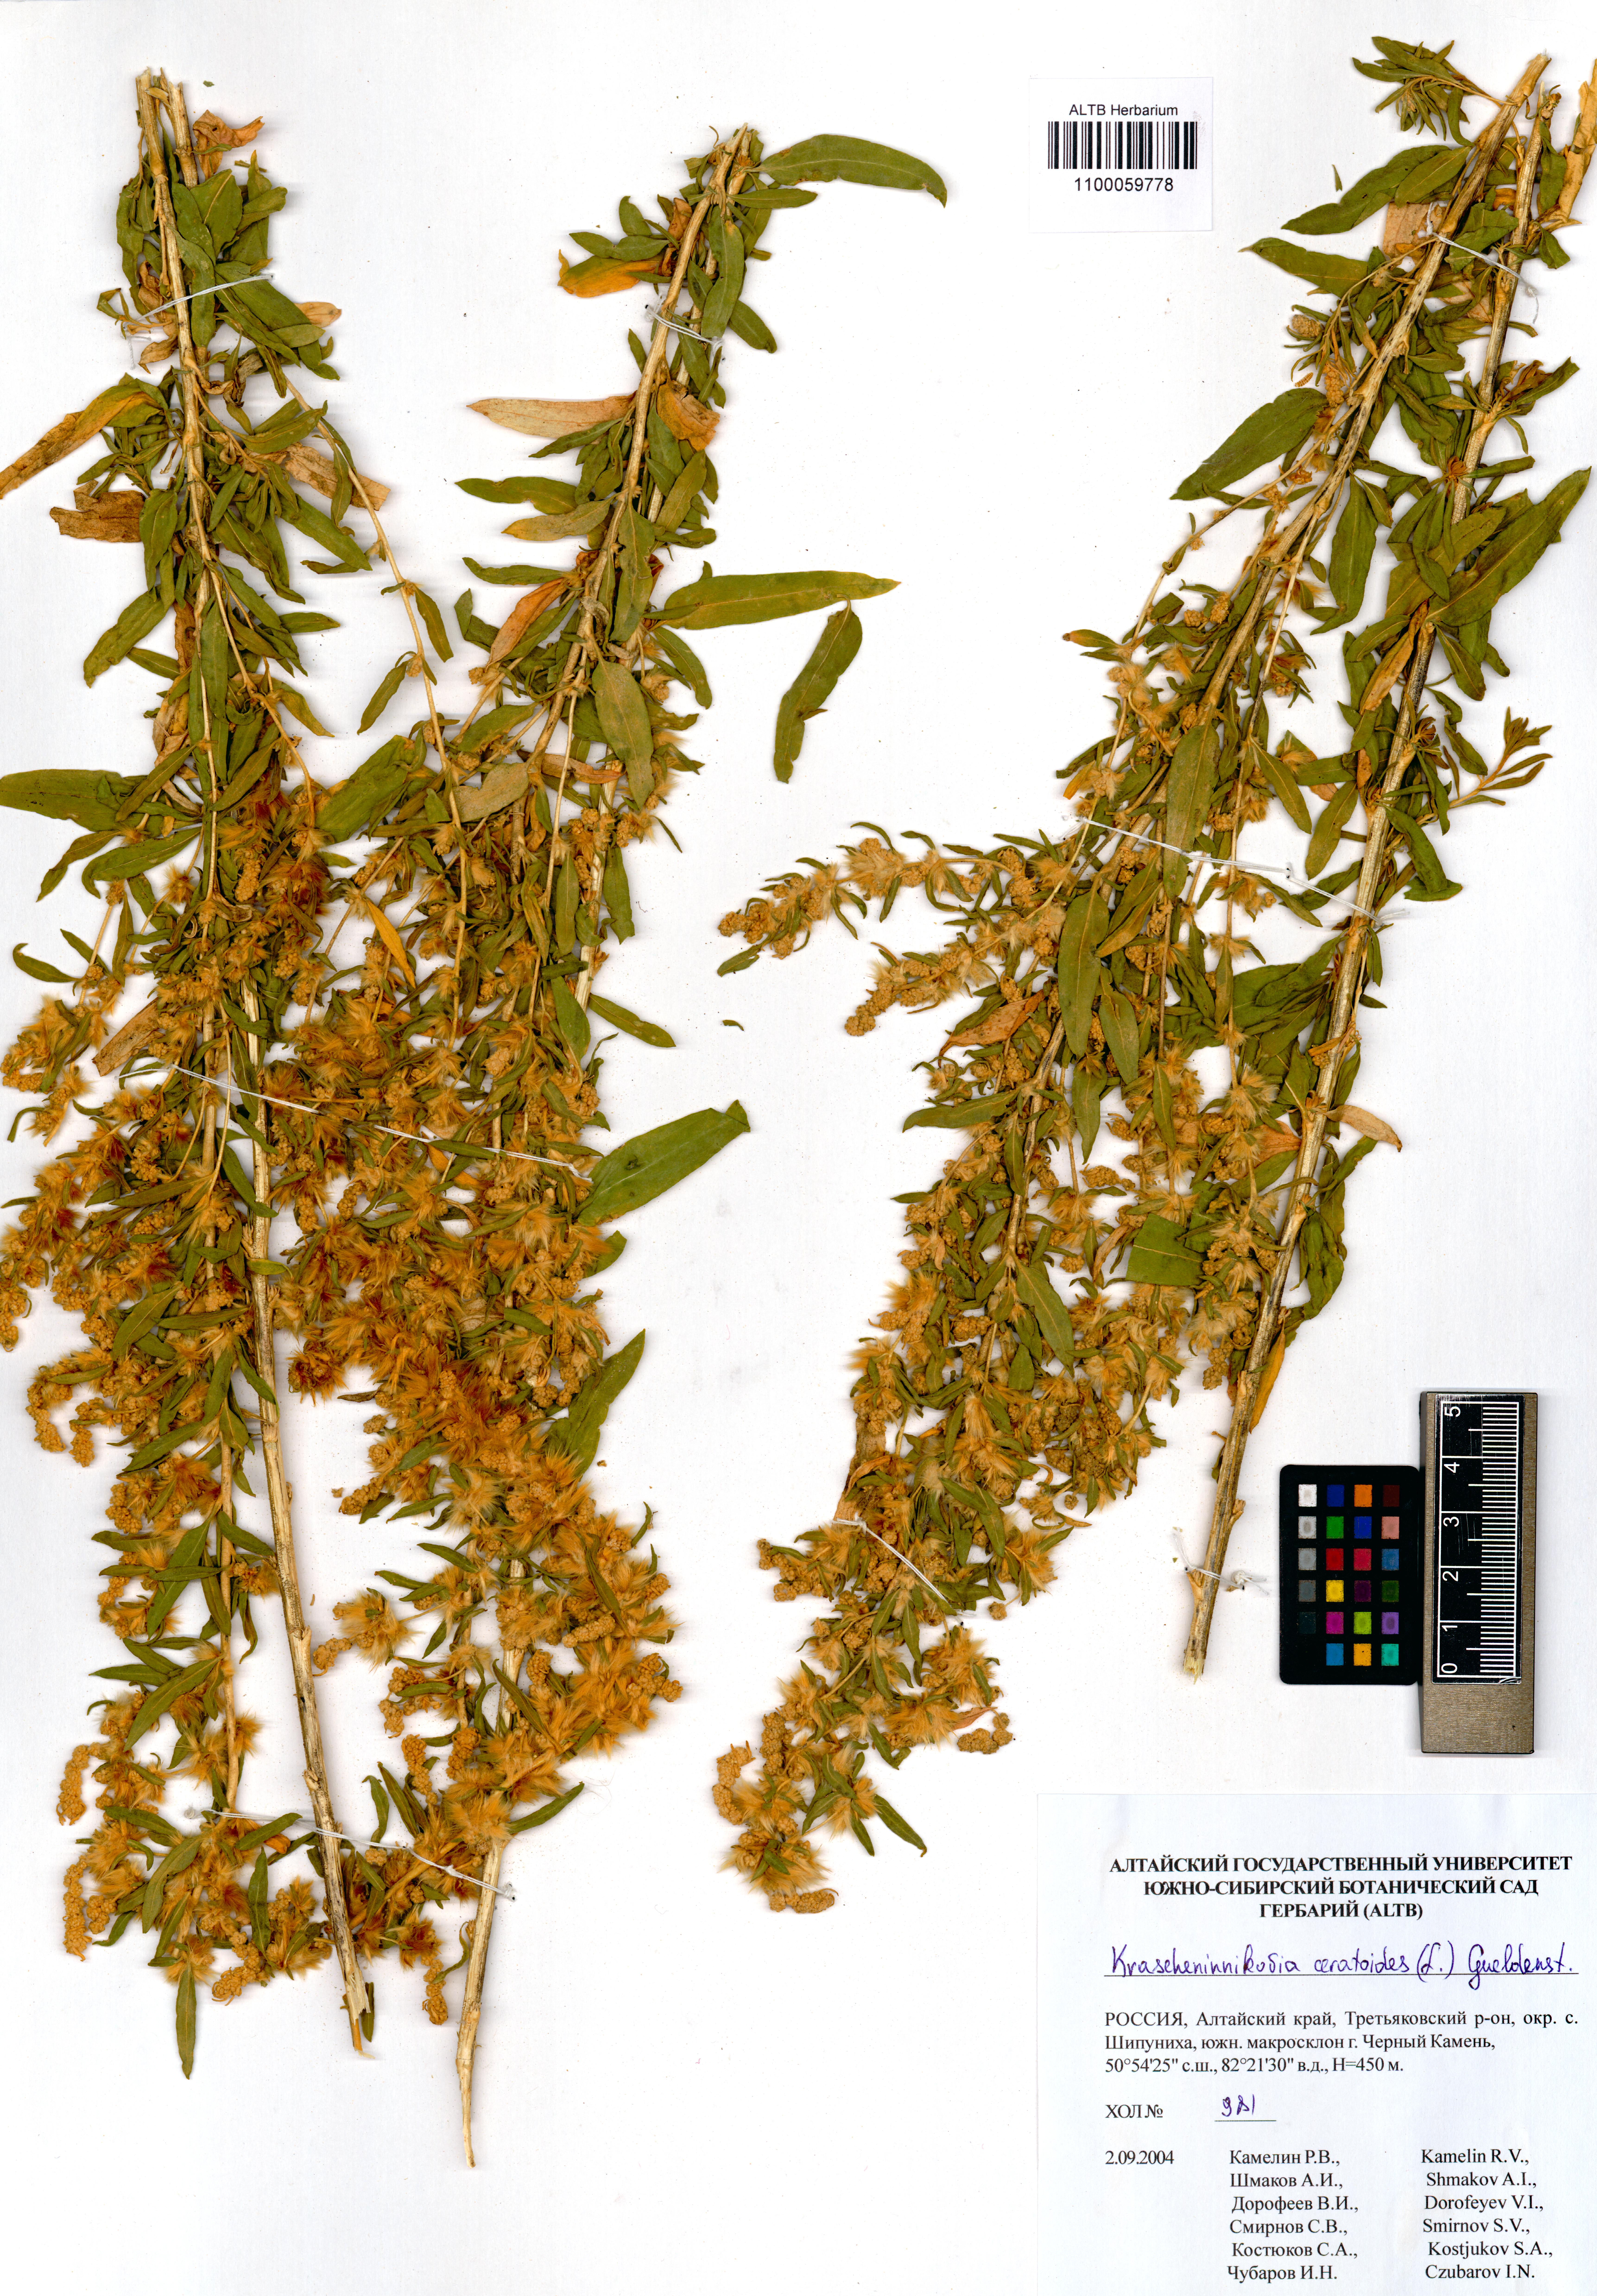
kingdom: Plantae
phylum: Tracheophyta
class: Magnoliopsida
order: Caryophyllales
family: Amaranthaceae
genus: Krascheninnikovia
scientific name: Krascheninnikovia ceratoides
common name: Pamirian winterfat
